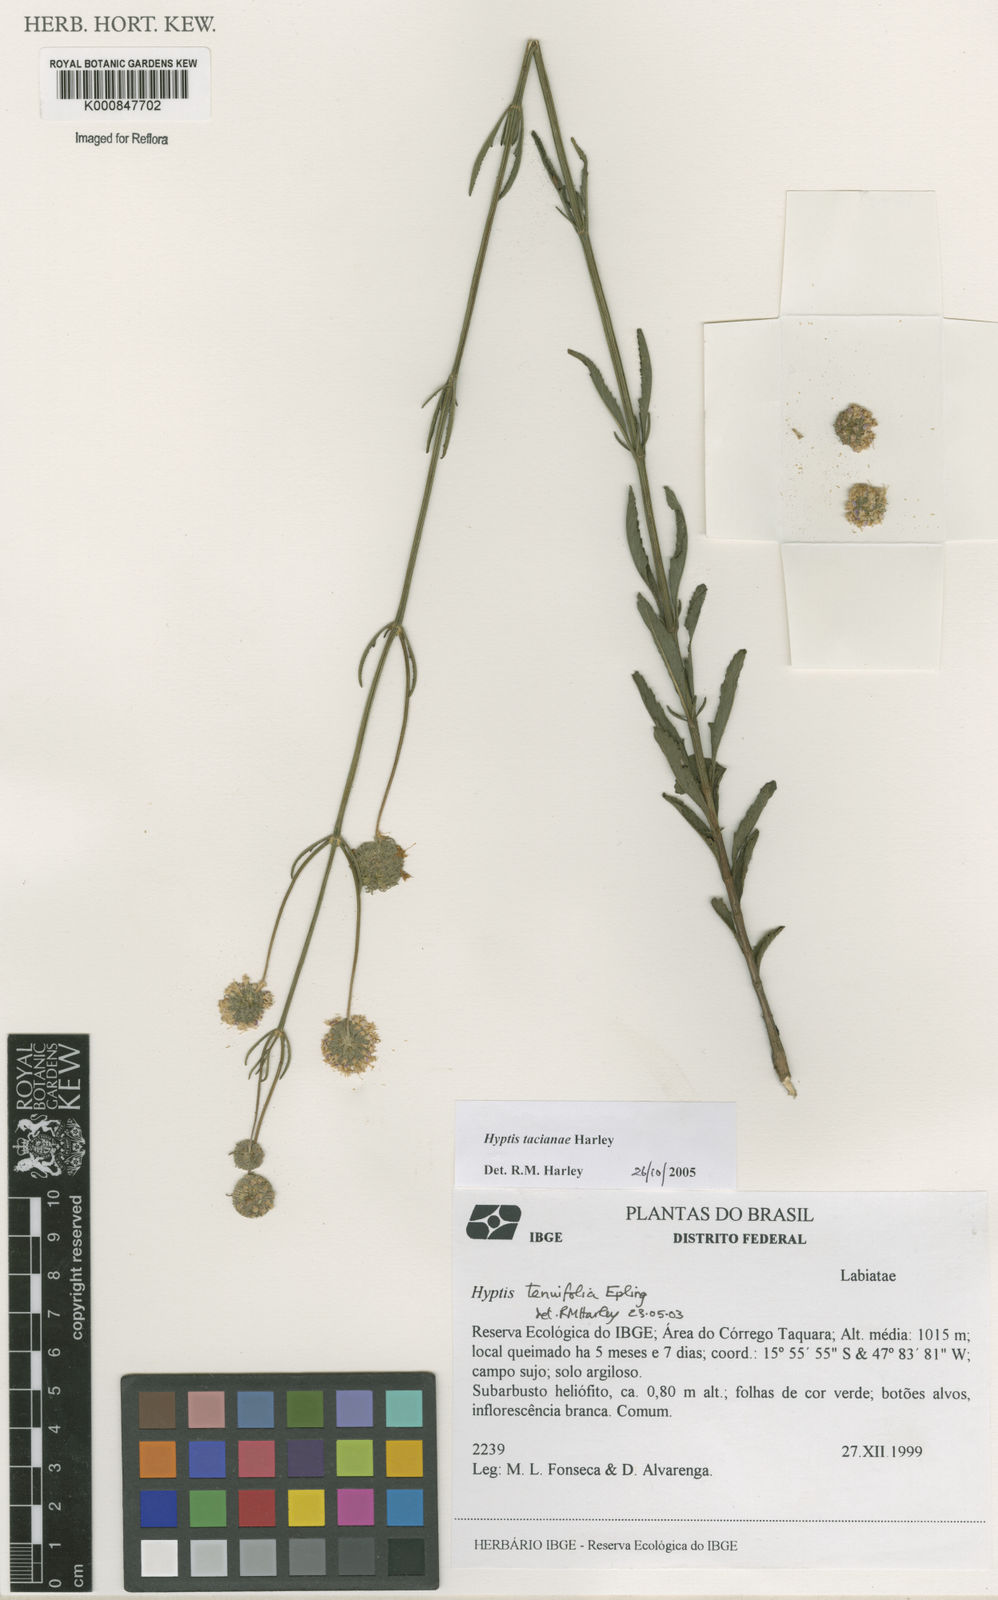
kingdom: Plantae
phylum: Tracheophyta
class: Magnoliopsida
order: Lamiales
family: Lamiaceae
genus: Cyanocephalus
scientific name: Cyanocephalus tacianae
